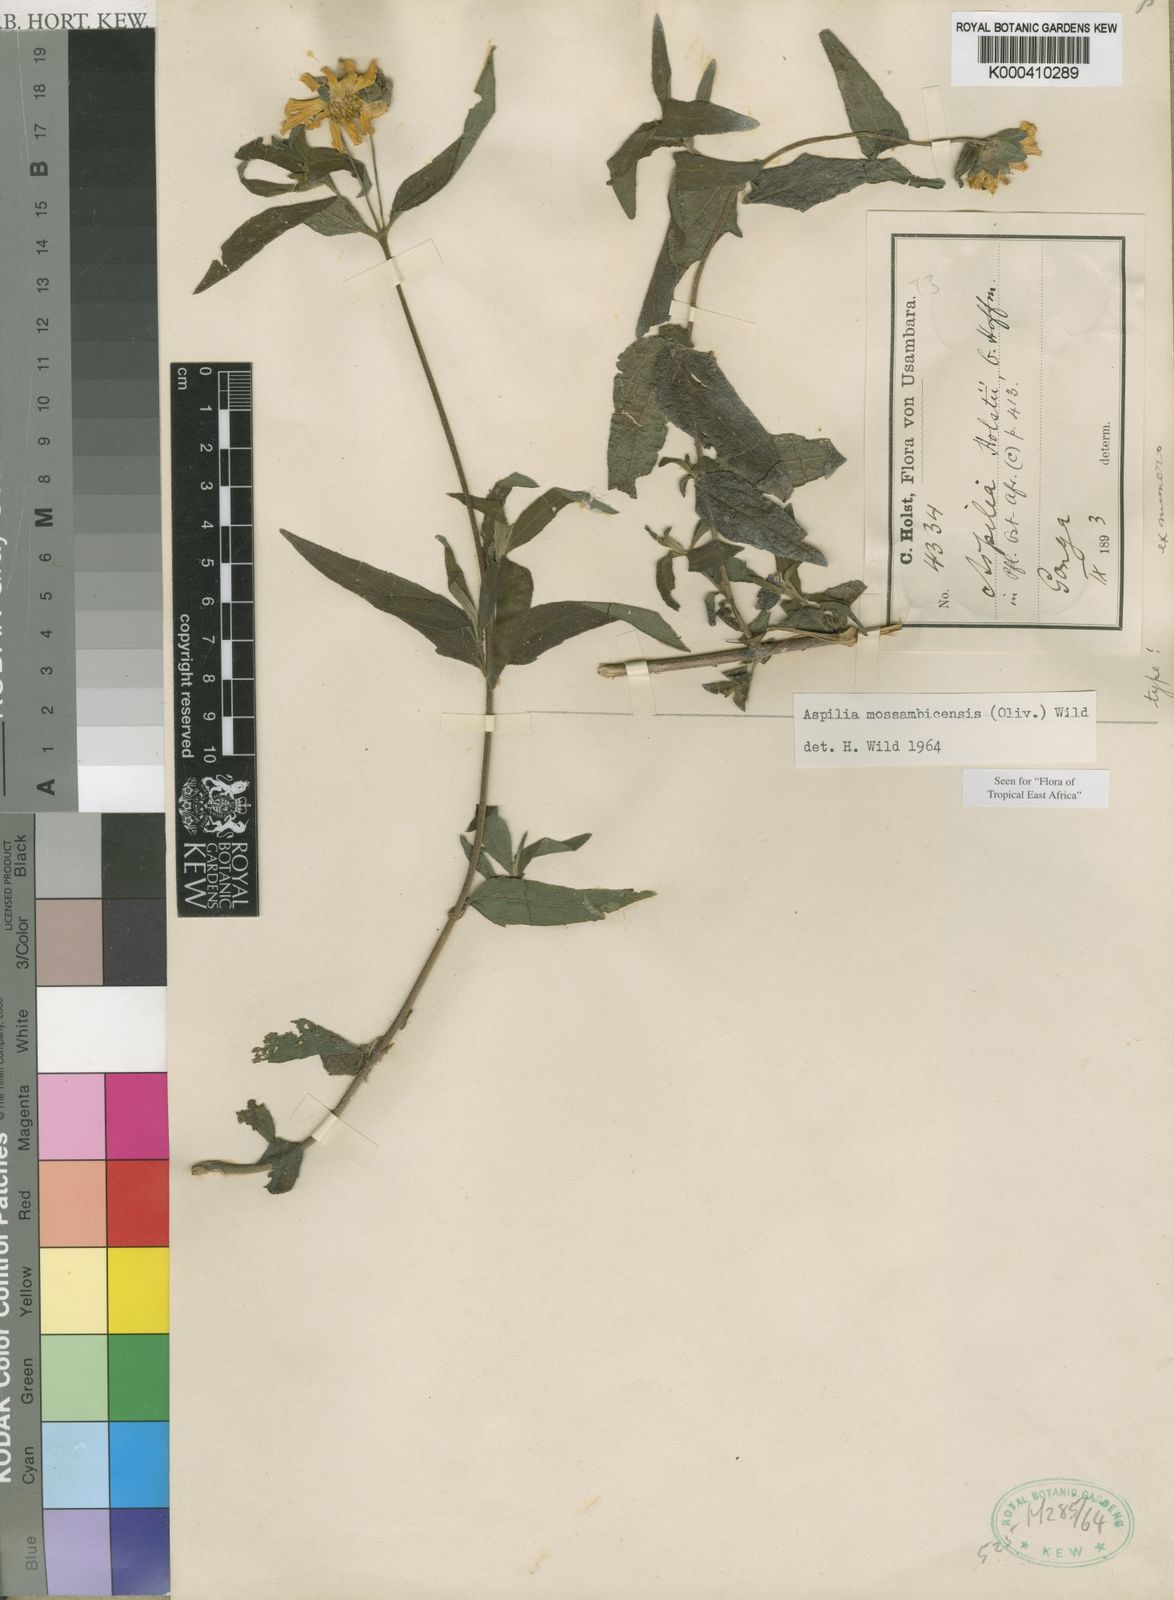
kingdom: Plantae
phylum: Tracheophyta
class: Magnoliopsida
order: Asterales
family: Asteraceae
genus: Aspilia
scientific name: Aspilia mossambicensis
